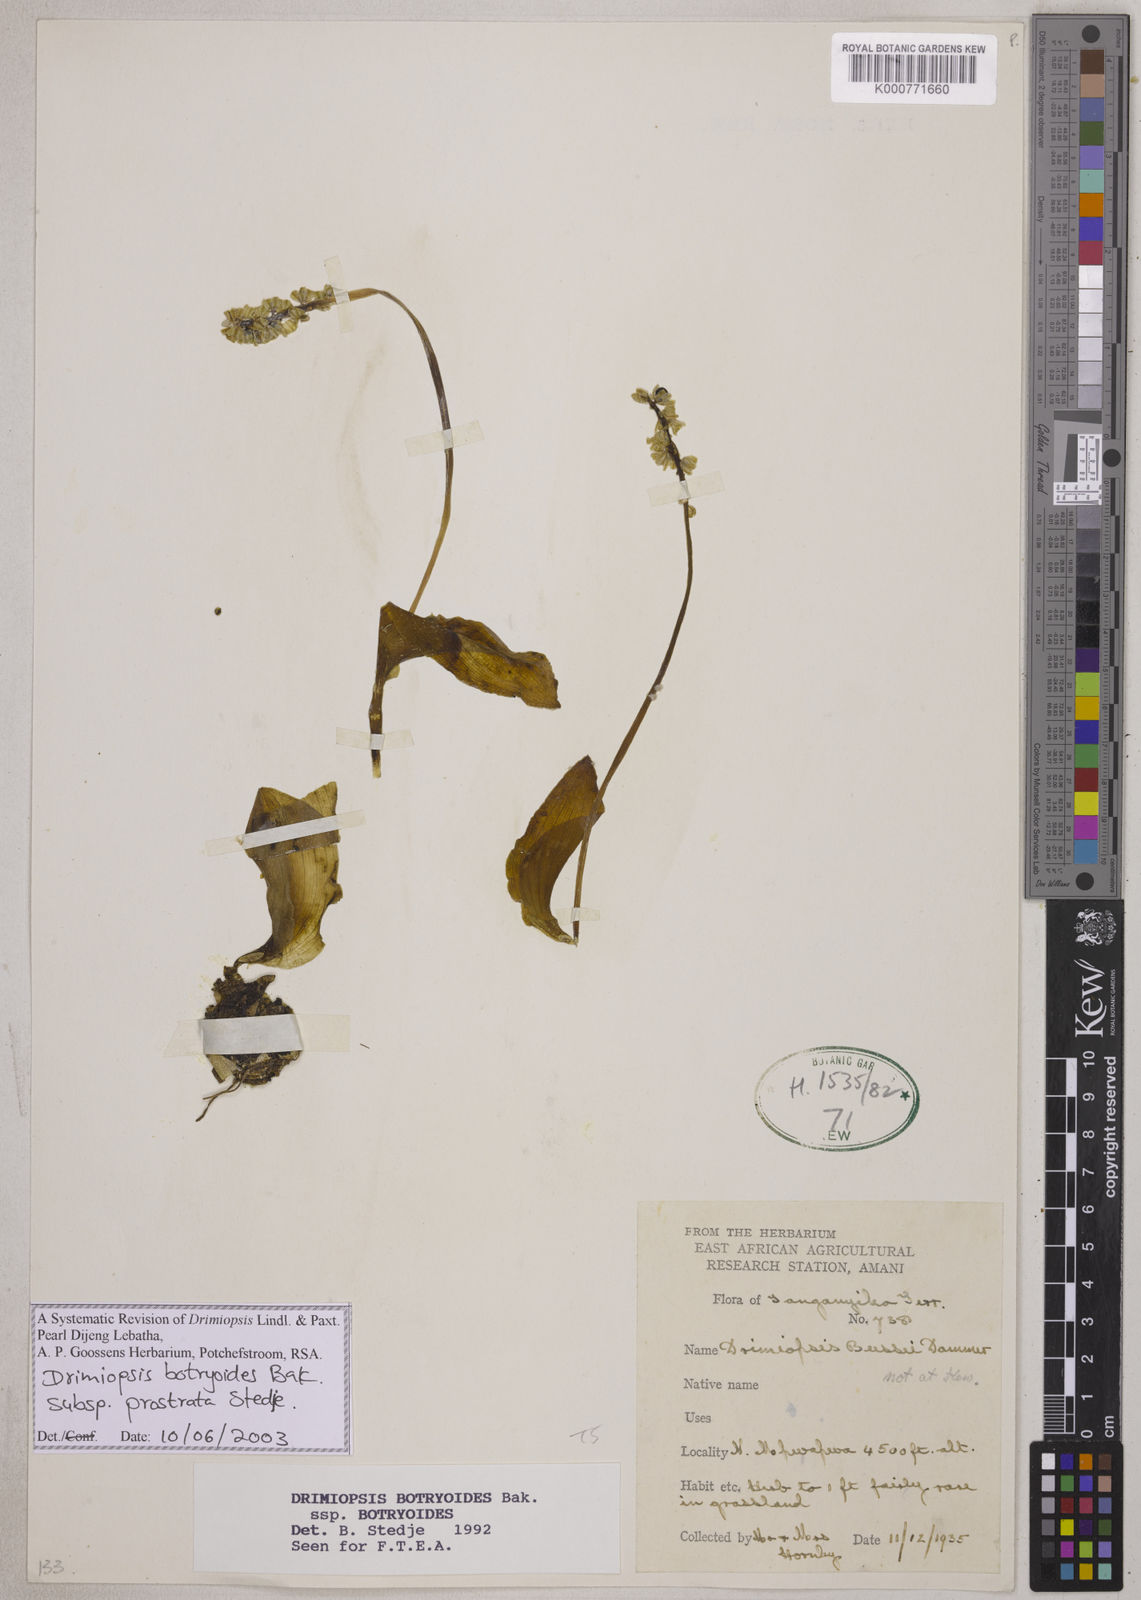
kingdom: Plantae
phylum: Tracheophyta
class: Liliopsida
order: Asparagales
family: Asparagaceae
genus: Drimiopsis
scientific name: Drimiopsis botryoides
